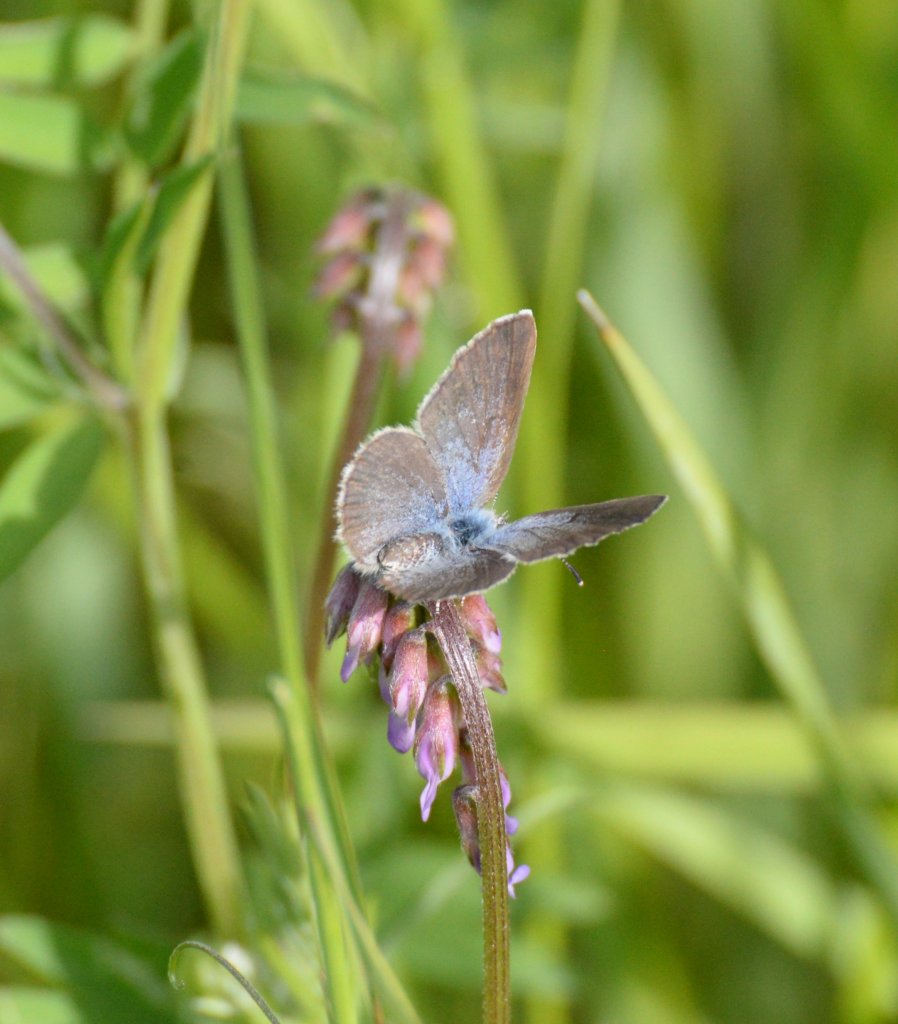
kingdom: Animalia
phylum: Arthropoda
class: Insecta
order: Lepidoptera
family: Lycaenidae
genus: Glaucopsyche
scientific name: Glaucopsyche lygdamus
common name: Silvery Blue
